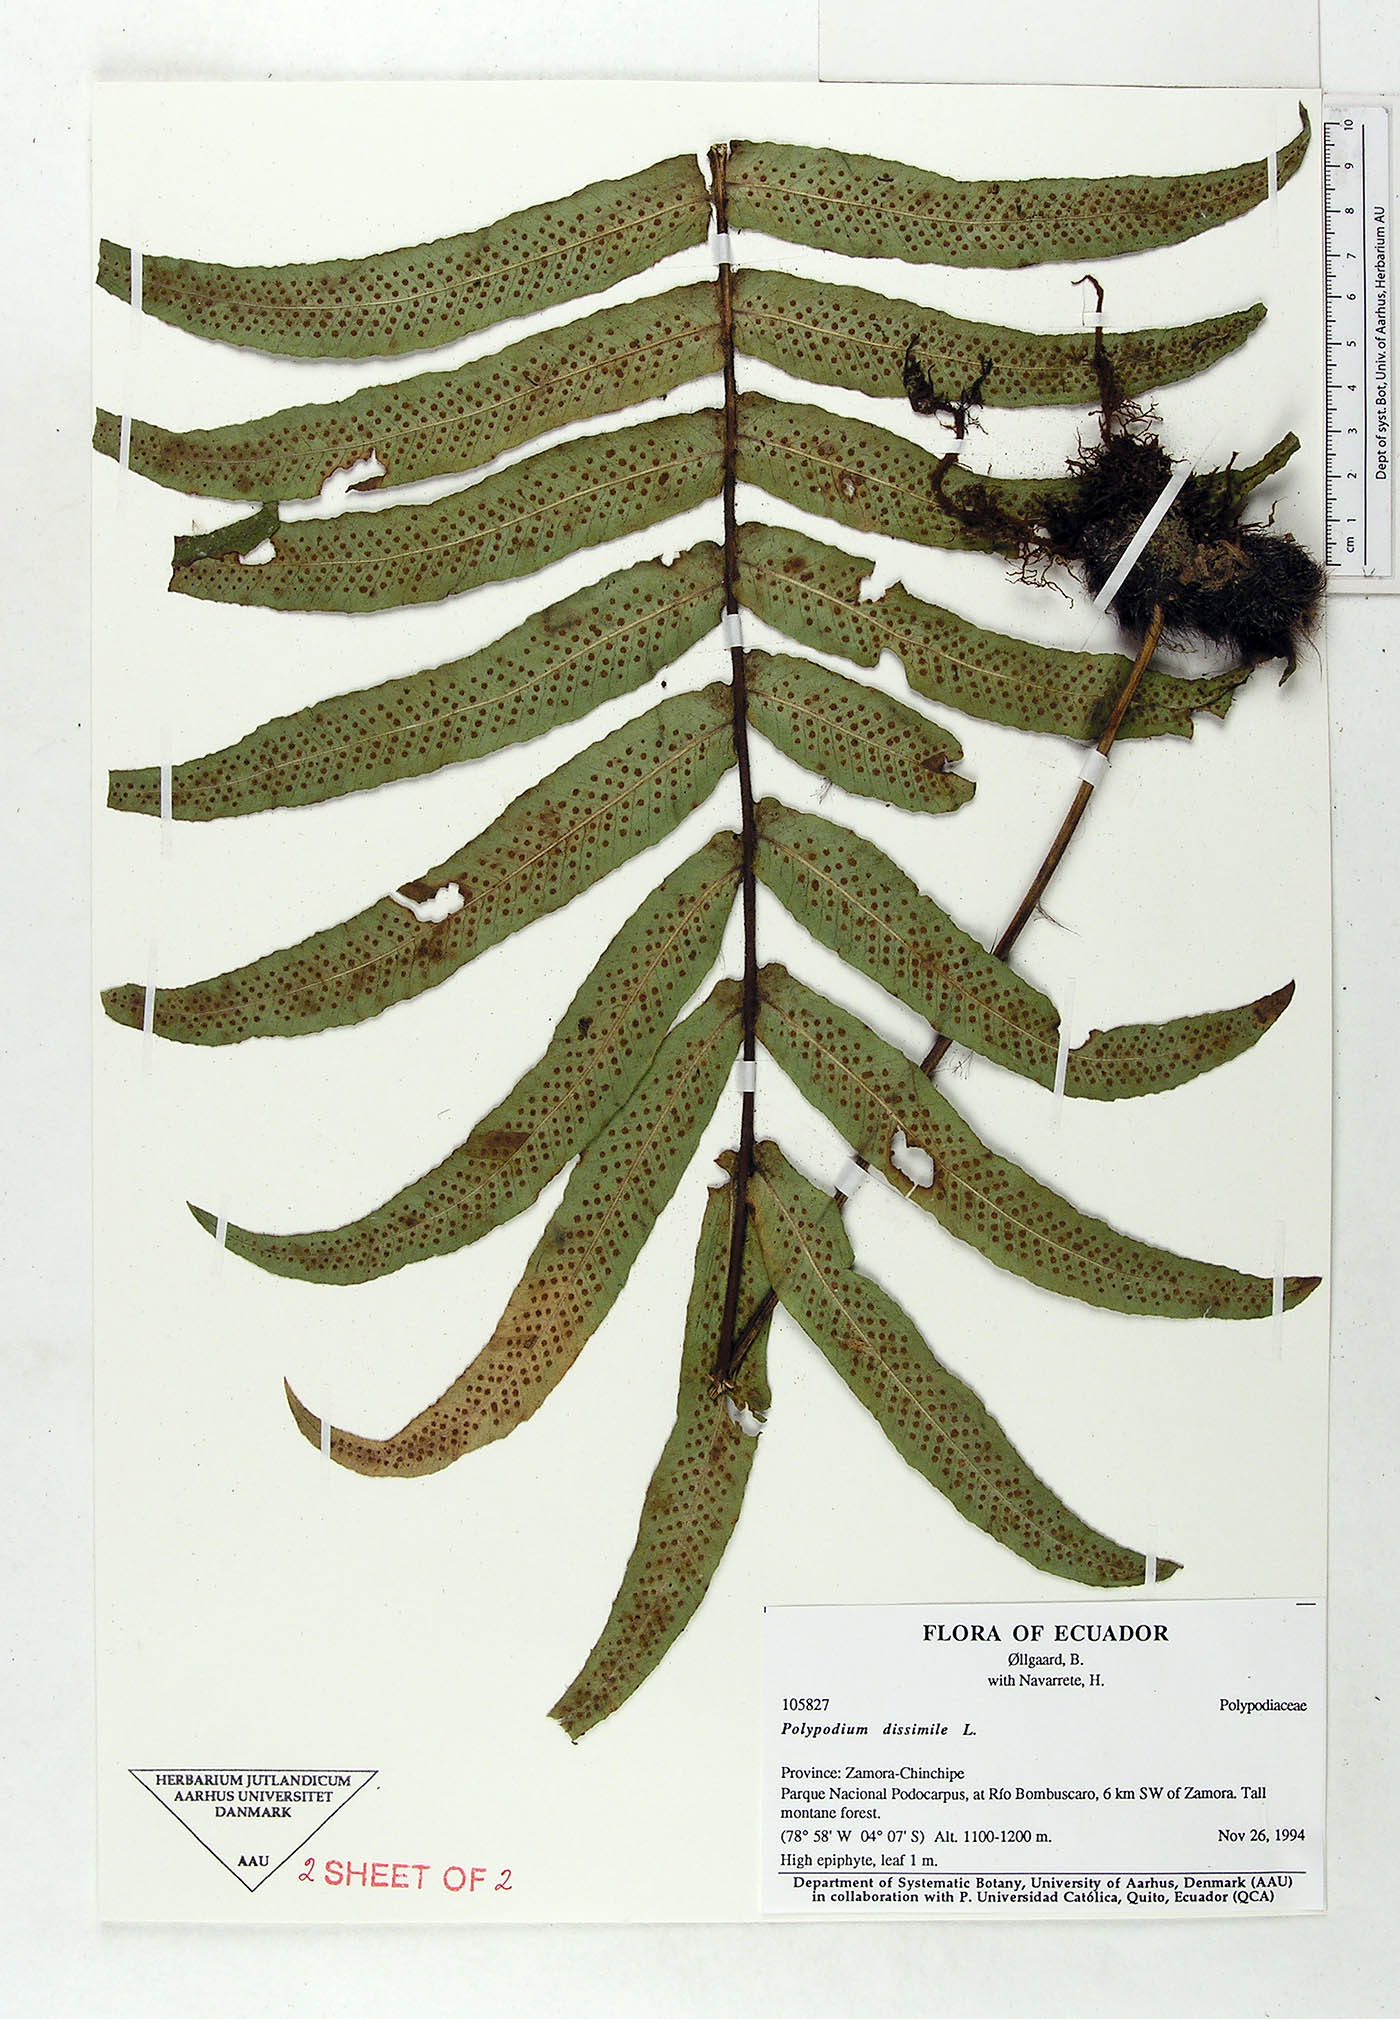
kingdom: Plantae
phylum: Tracheophyta
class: Polypodiopsida
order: Polypodiales
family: Polypodiaceae
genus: Serpocaulon
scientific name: Serpocaulon dissimile
